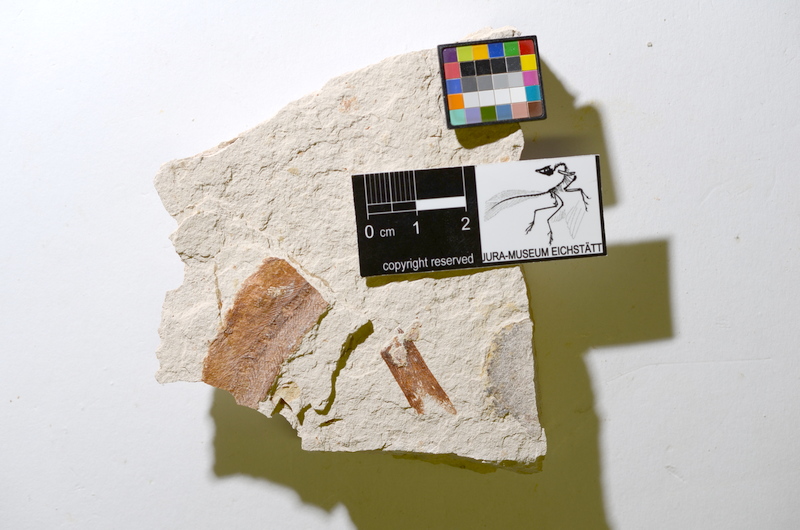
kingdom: Animalia
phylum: Chordata
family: Ascalaboidae
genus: Tharsis
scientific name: Tharsis dubius
